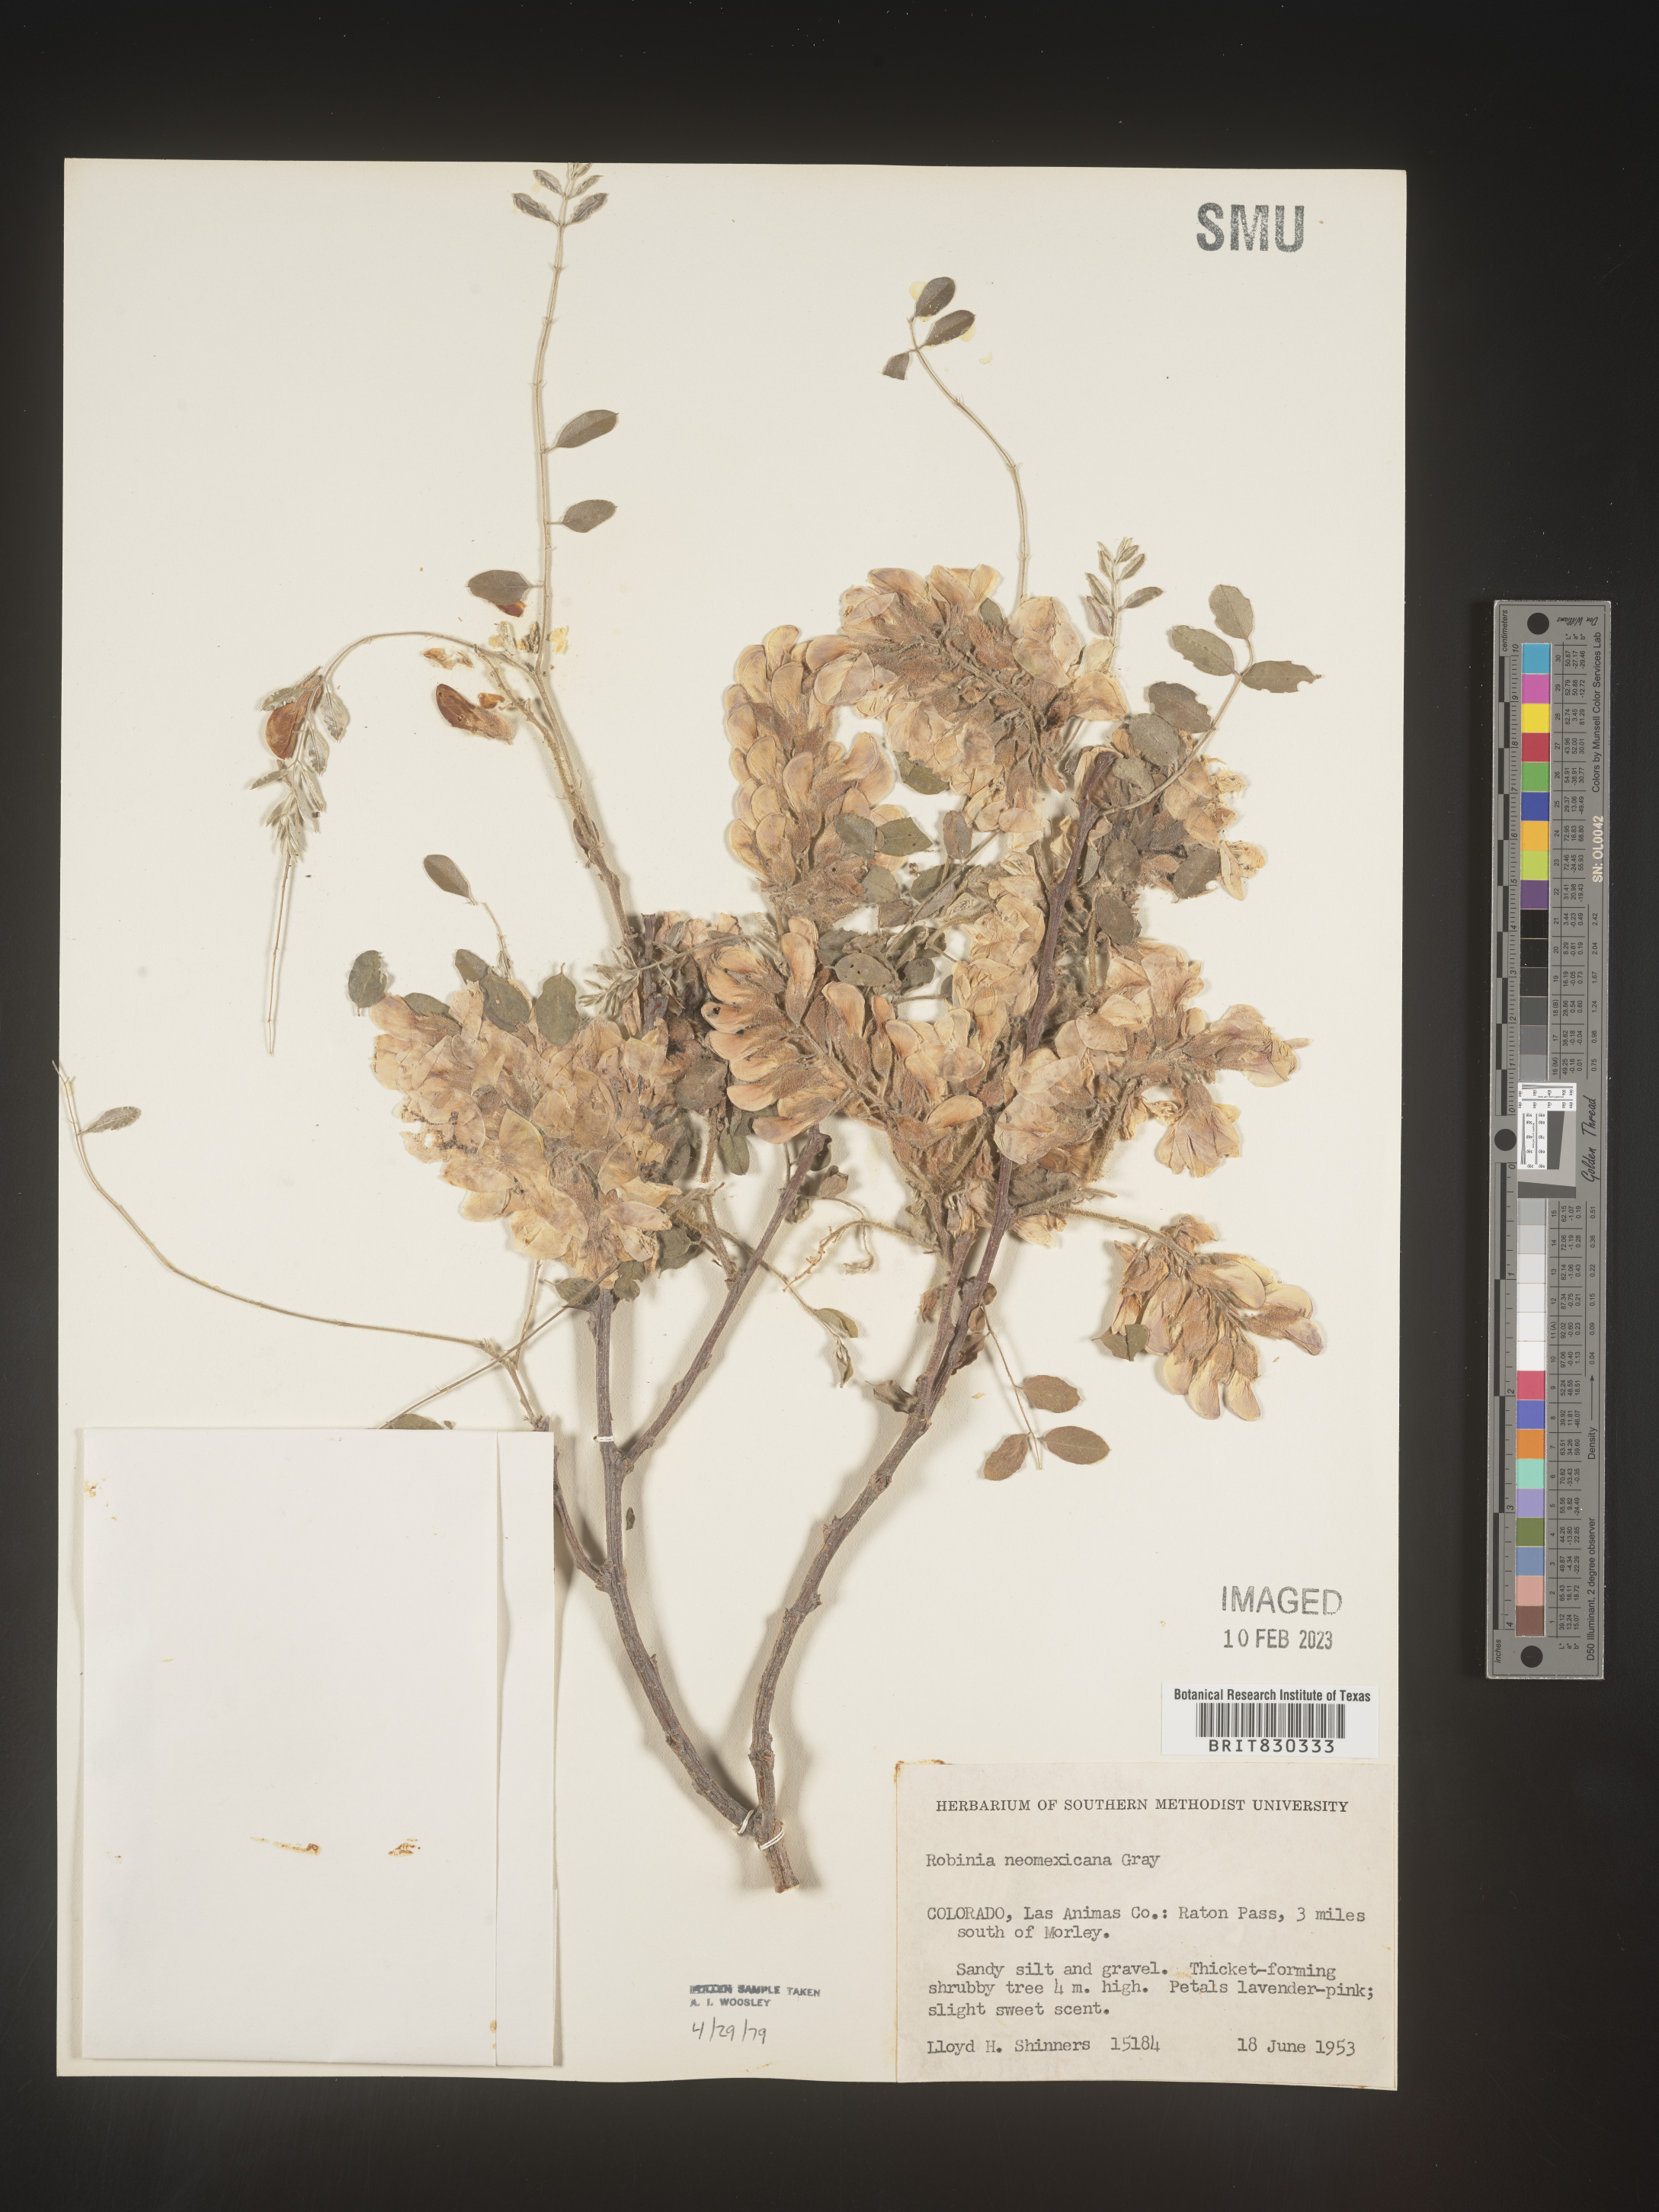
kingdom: Plantae
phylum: Tracheophyta
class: Magnoliopsida
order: Fabales
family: Fabaceae
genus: Robinia
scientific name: Robinia neomexicana
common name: New mexico locust
